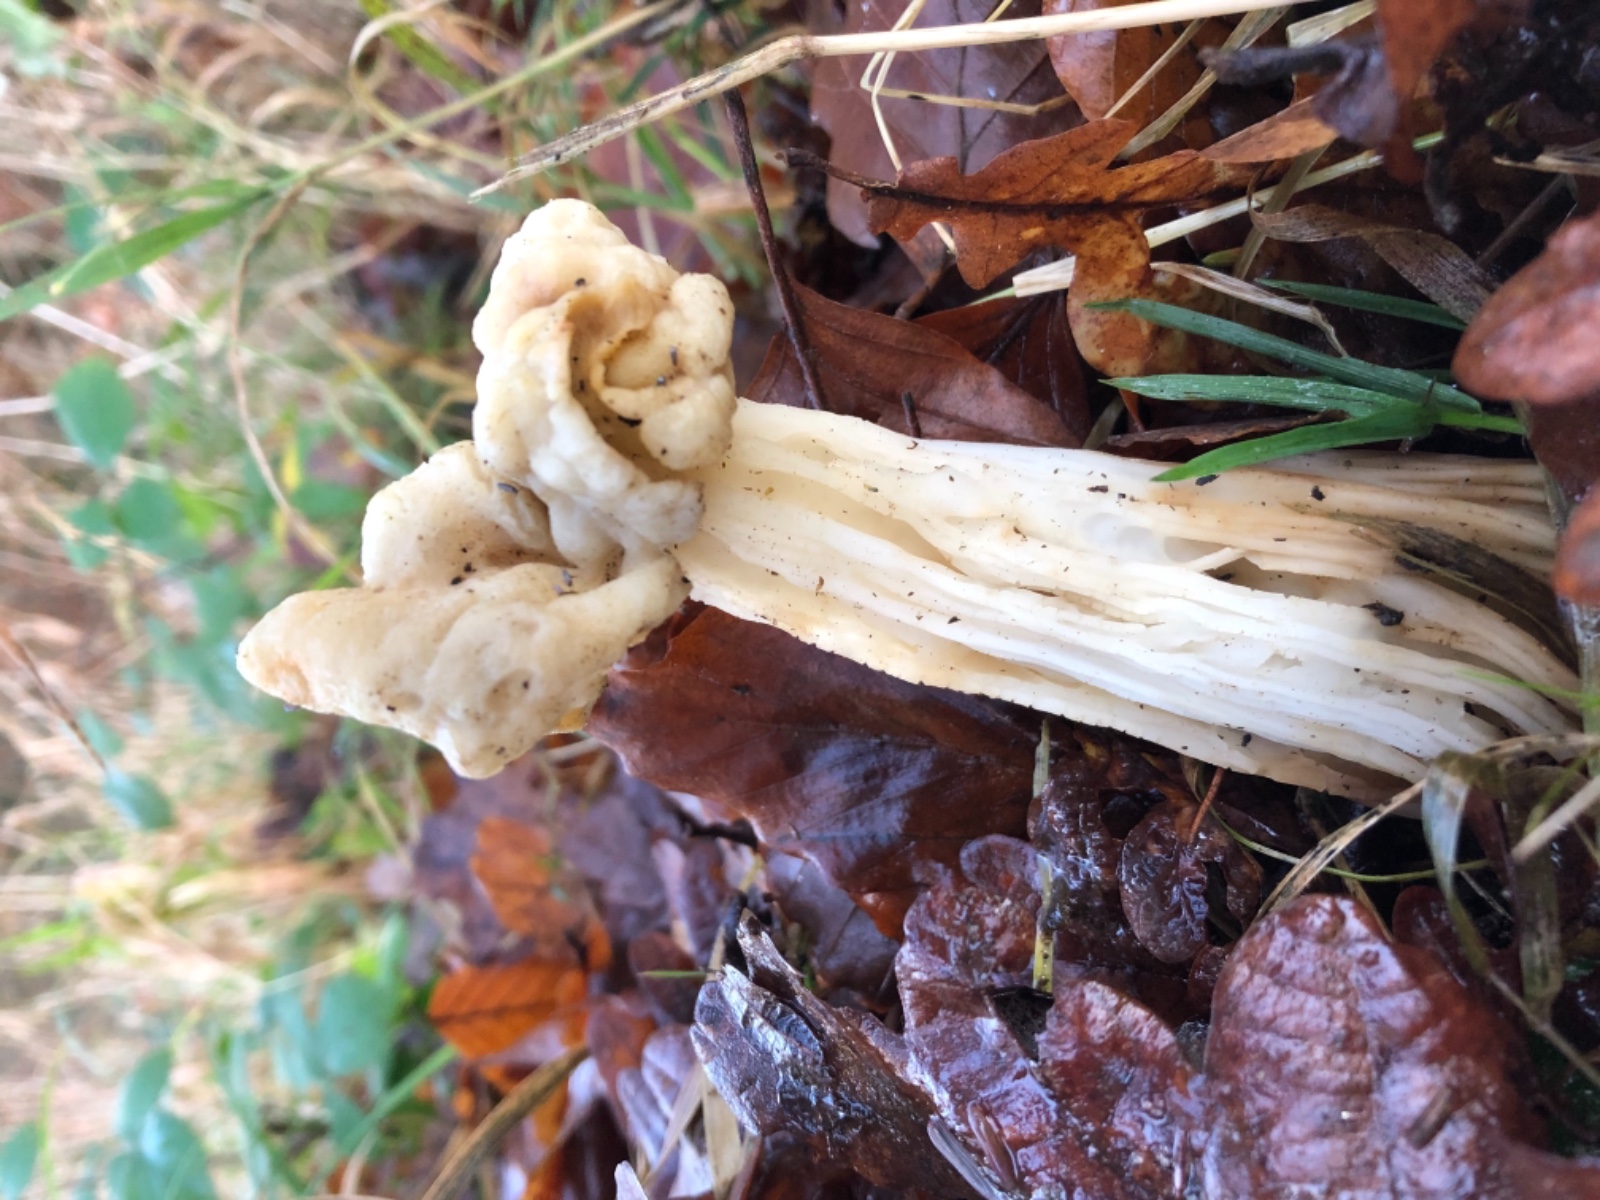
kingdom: Fungi
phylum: Ascomycota
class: Pezizomycetes
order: Pezizales
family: Helvellaceae
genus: Helvella
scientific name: Helvella crispa
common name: kruset foldhat
